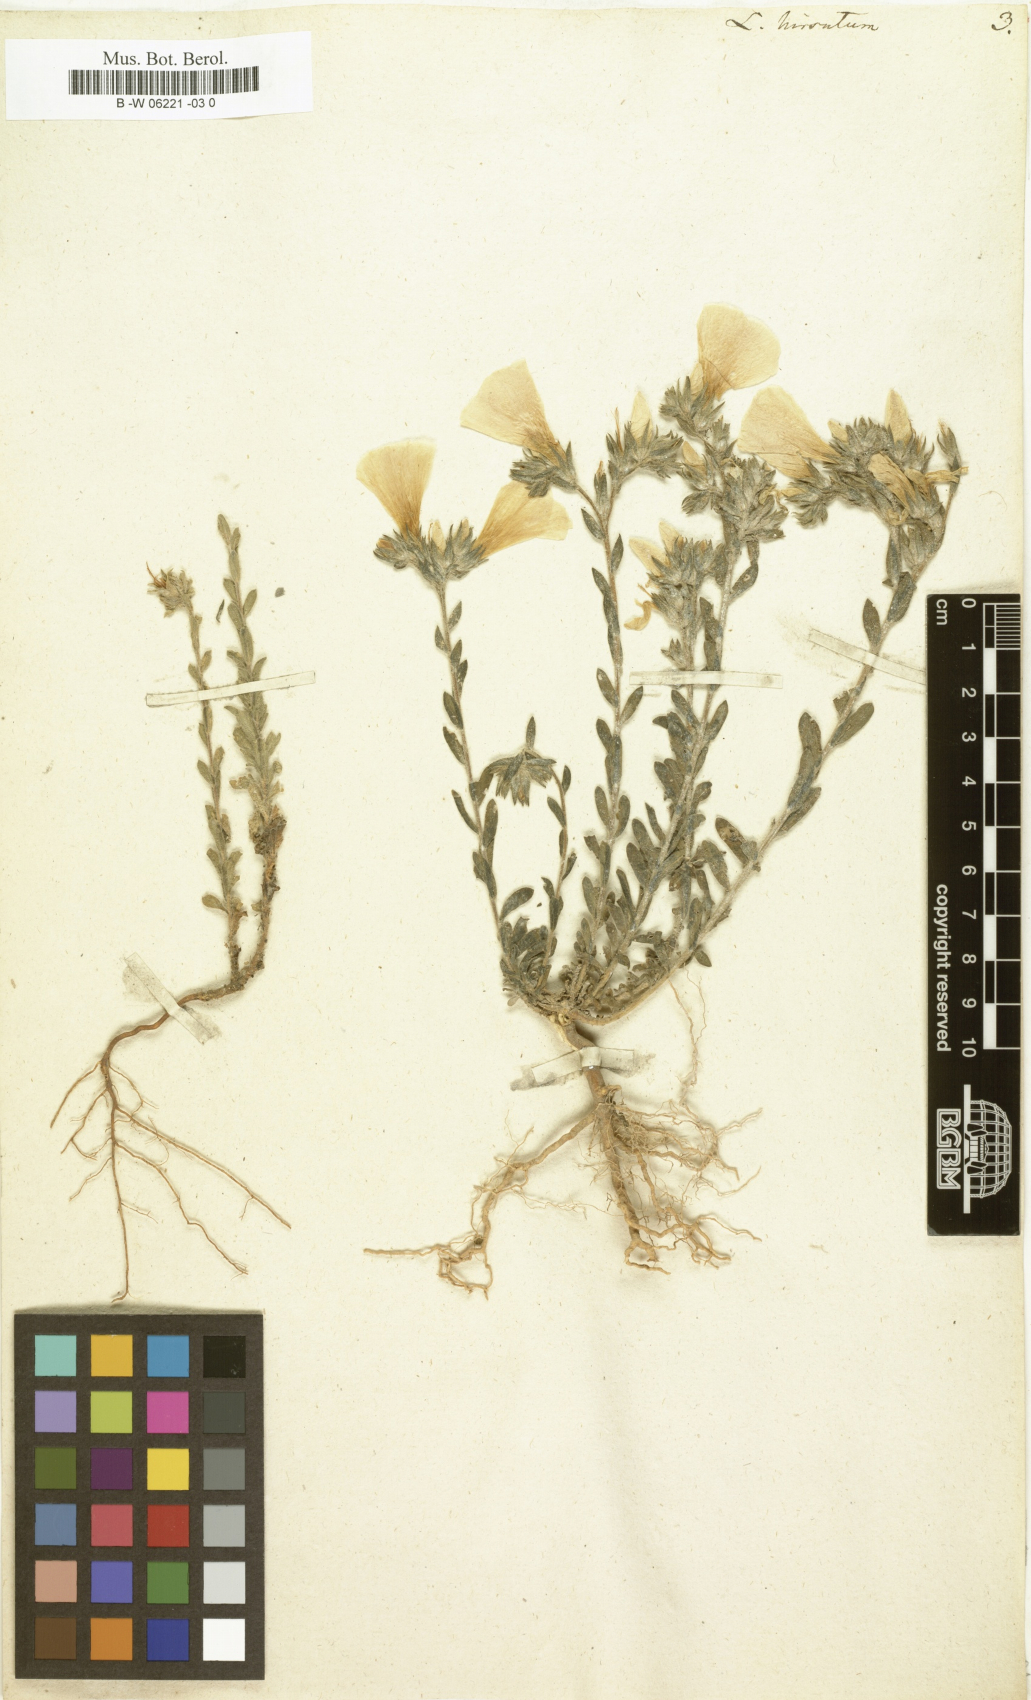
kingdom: Plantae
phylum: Tracheophyta
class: Magnoliopsida
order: Malpighiales
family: Linaceae
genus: Linum
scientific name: Linum hirsutum
